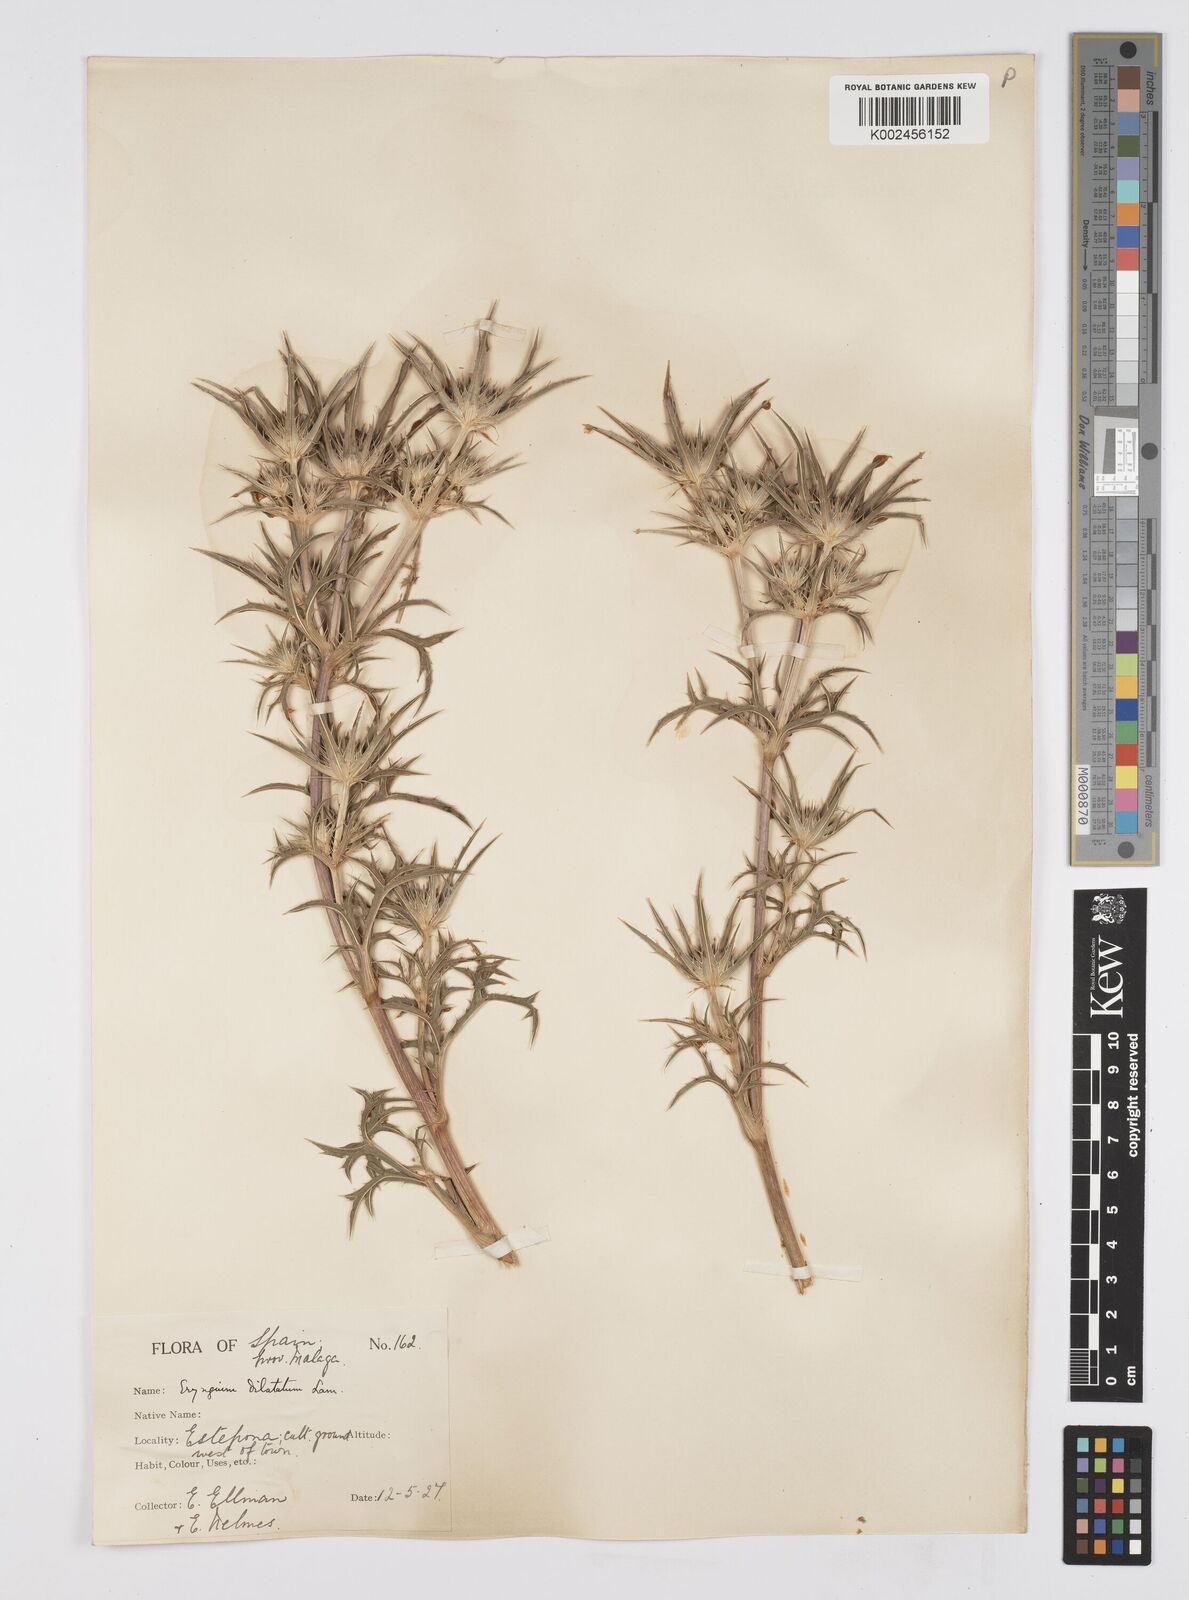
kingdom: Plantae
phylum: Tracheophyta
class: Magnoliopsida
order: Apiales
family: Apiaceae
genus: Eryngium
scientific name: Eryngium dilatatum
